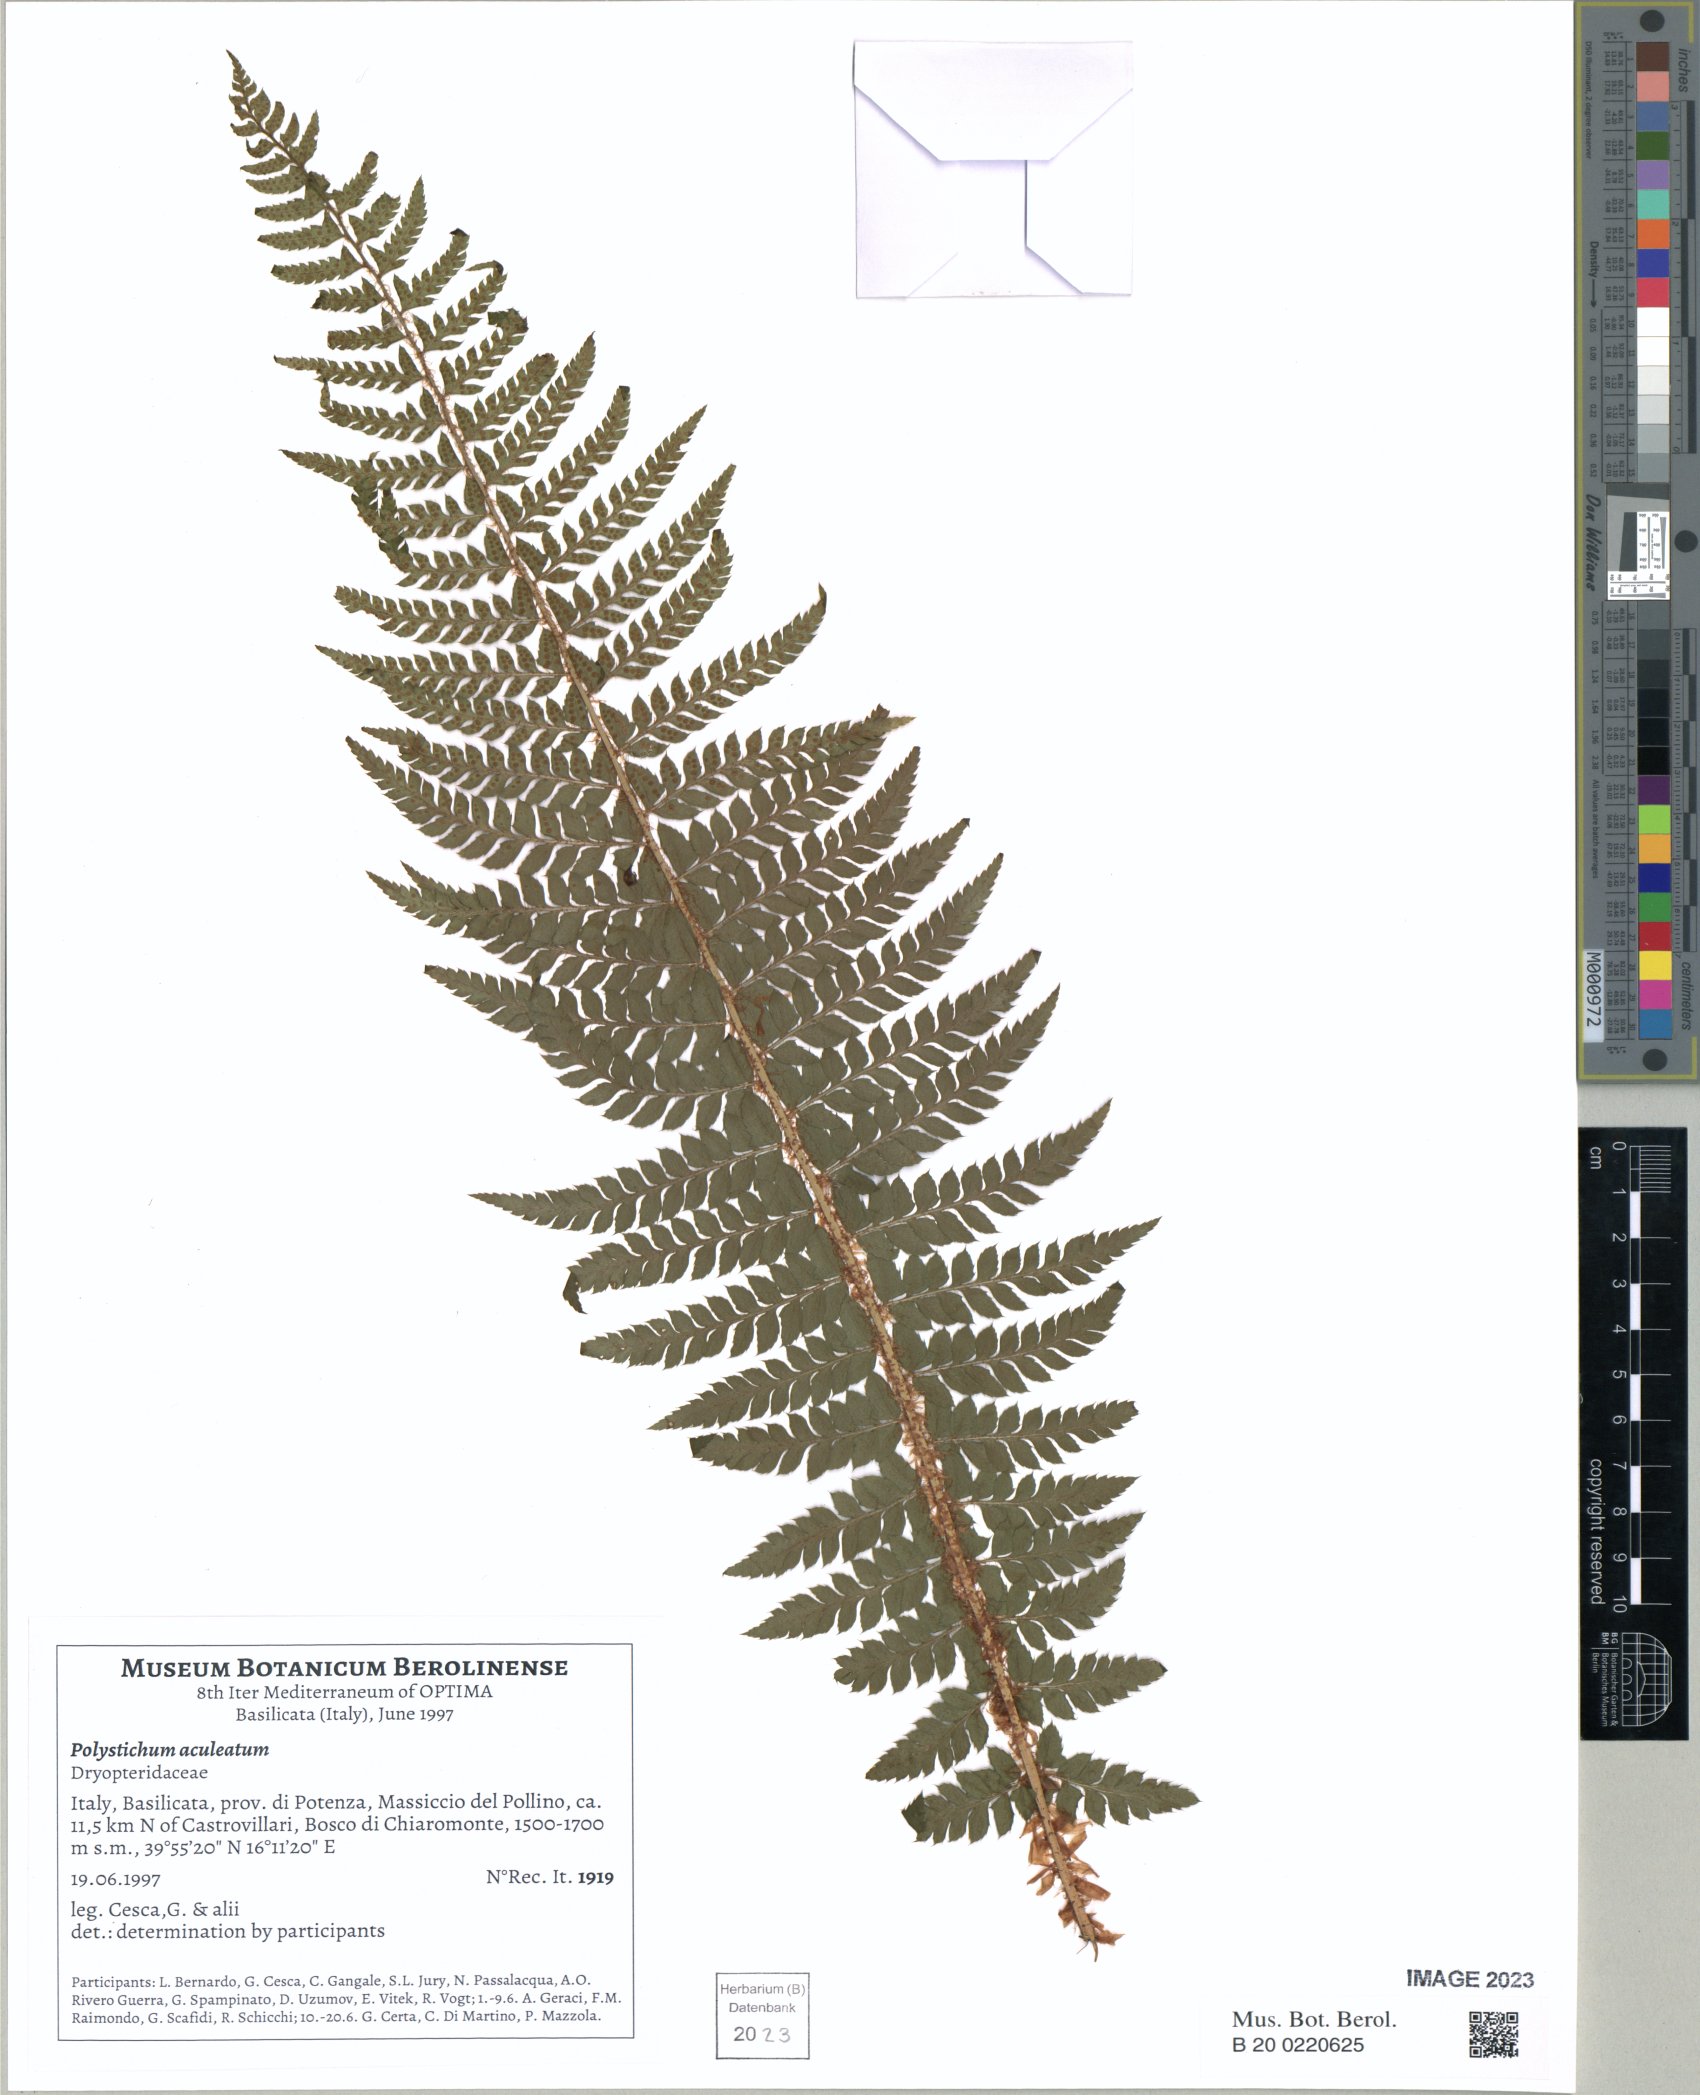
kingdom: Plantae
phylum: Tracheophyta
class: Polypodiopsida
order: Polypodiales
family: Dryopteridaceae
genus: Polystichum
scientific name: Polystichum aculeatum
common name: Hard shield-fern
